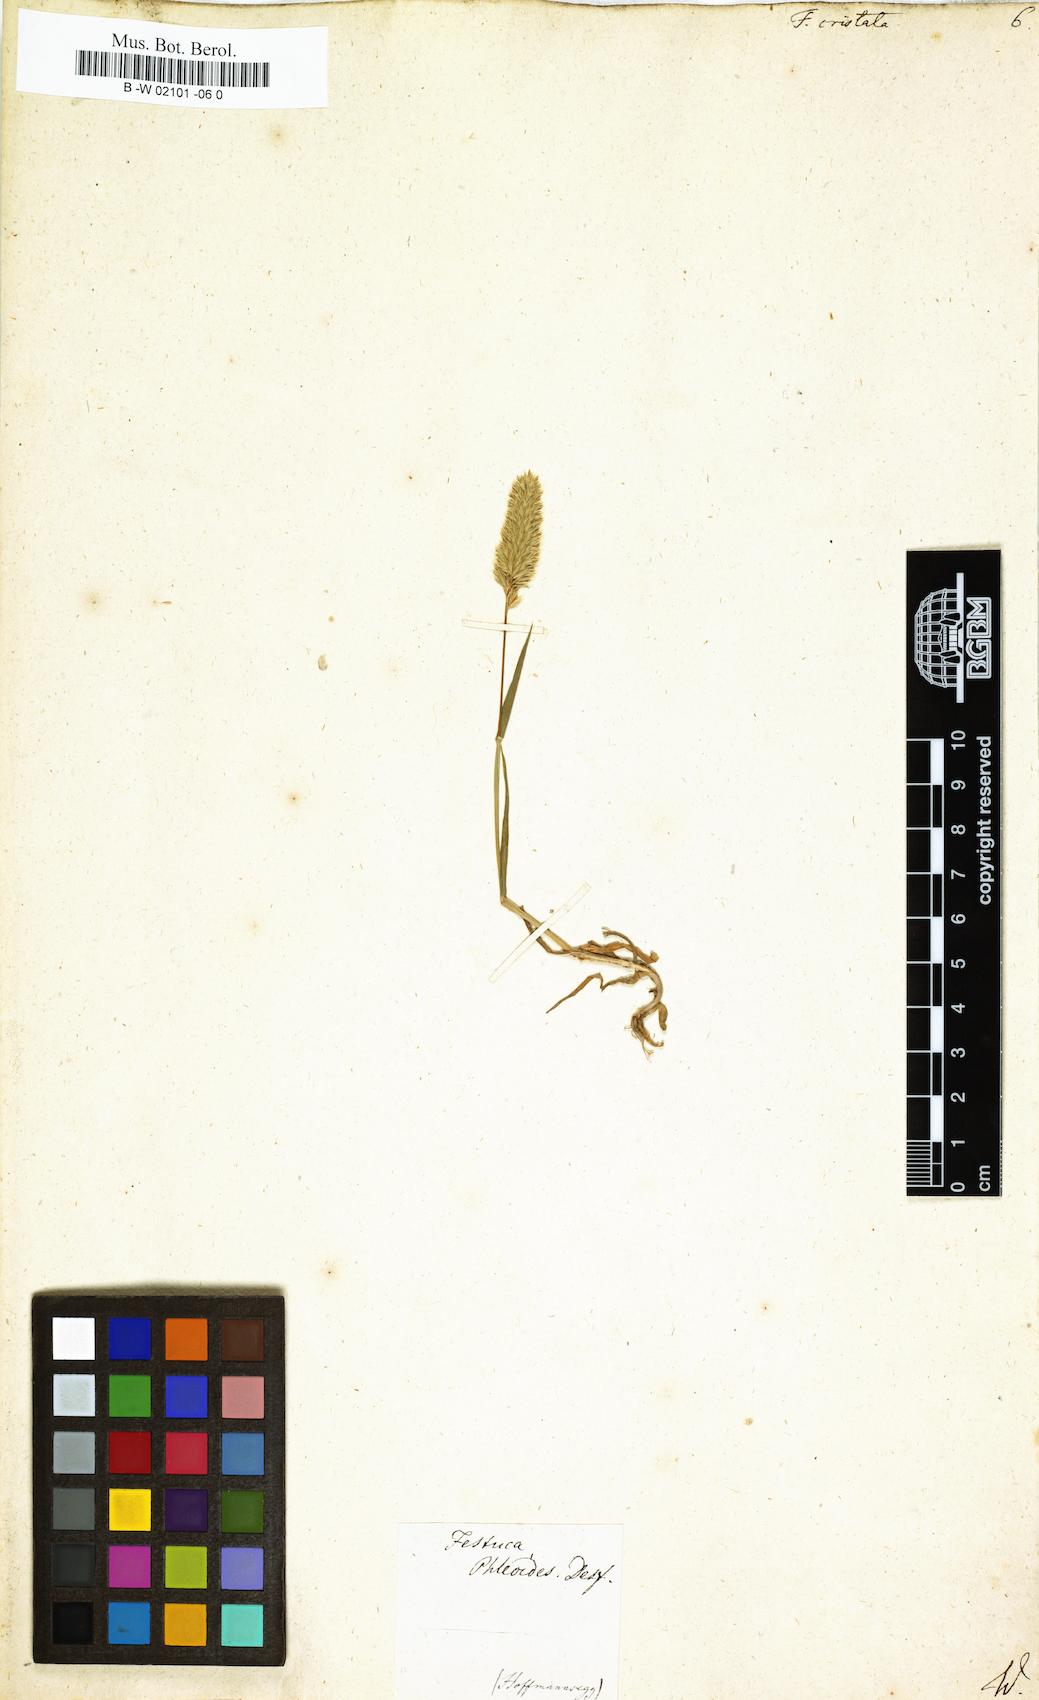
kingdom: Plantae
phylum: Tracheophyta
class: Liliopsida
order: Poales
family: Poaceae
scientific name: Poaceae
